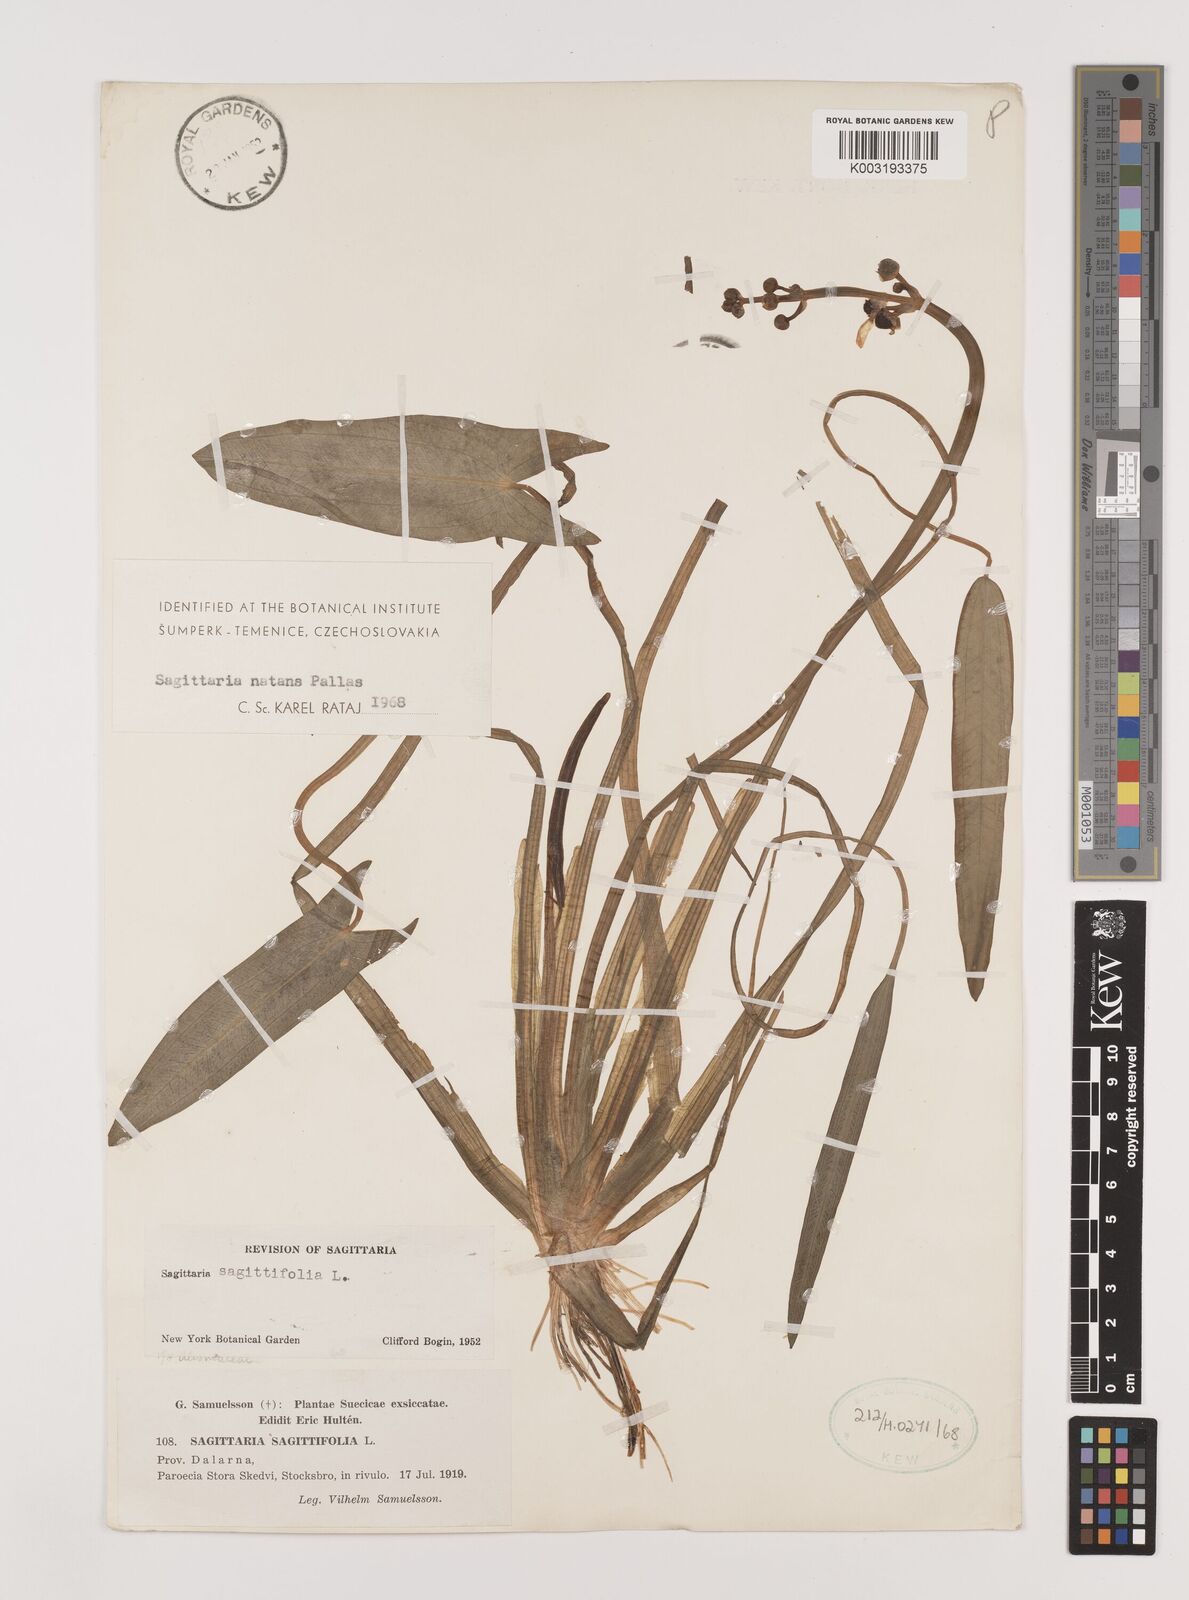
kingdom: Plantae
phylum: Tracheophyta
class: Liliopsida
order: Alismatales
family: Alismataceae
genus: Sagittaria
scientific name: Sagittaria natans
